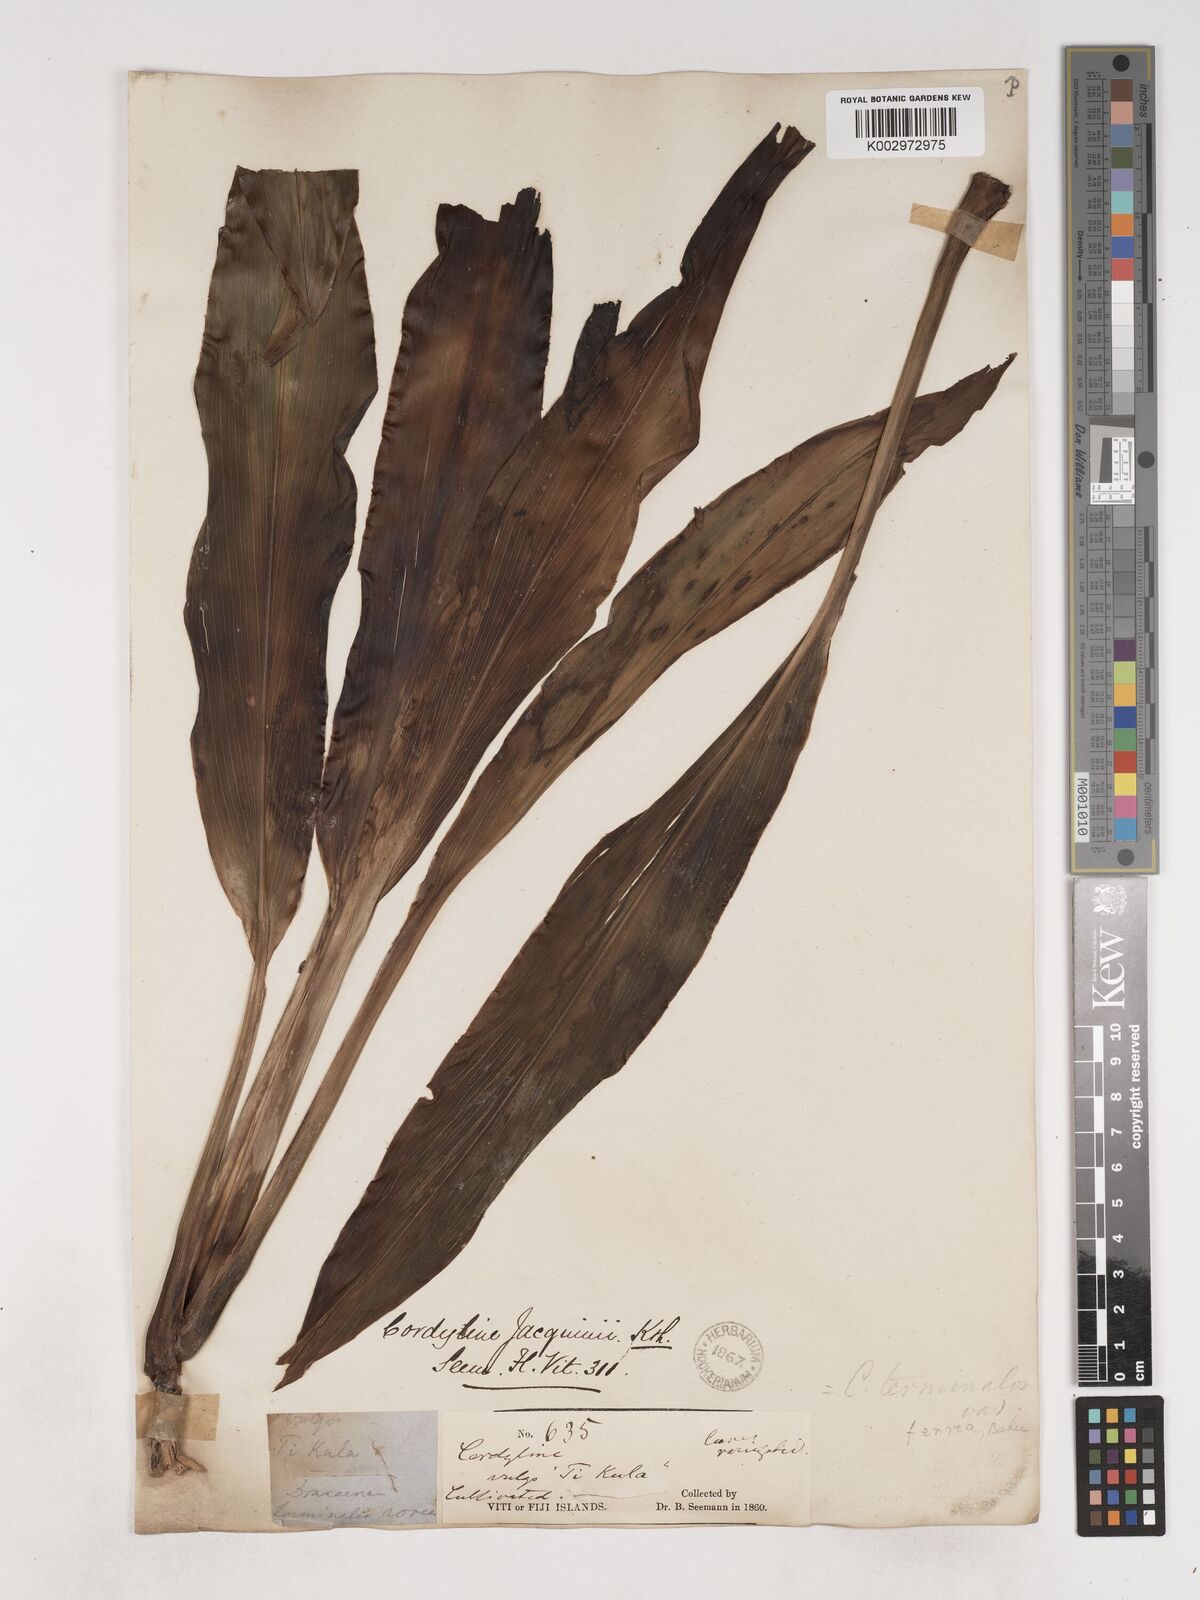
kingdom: Plantae
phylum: Tracheophyta
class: Liliopsida
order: Asparagales
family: Asparagaceae
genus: Cordyline
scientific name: Cordyline fruticosa
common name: Good-luck-plant
